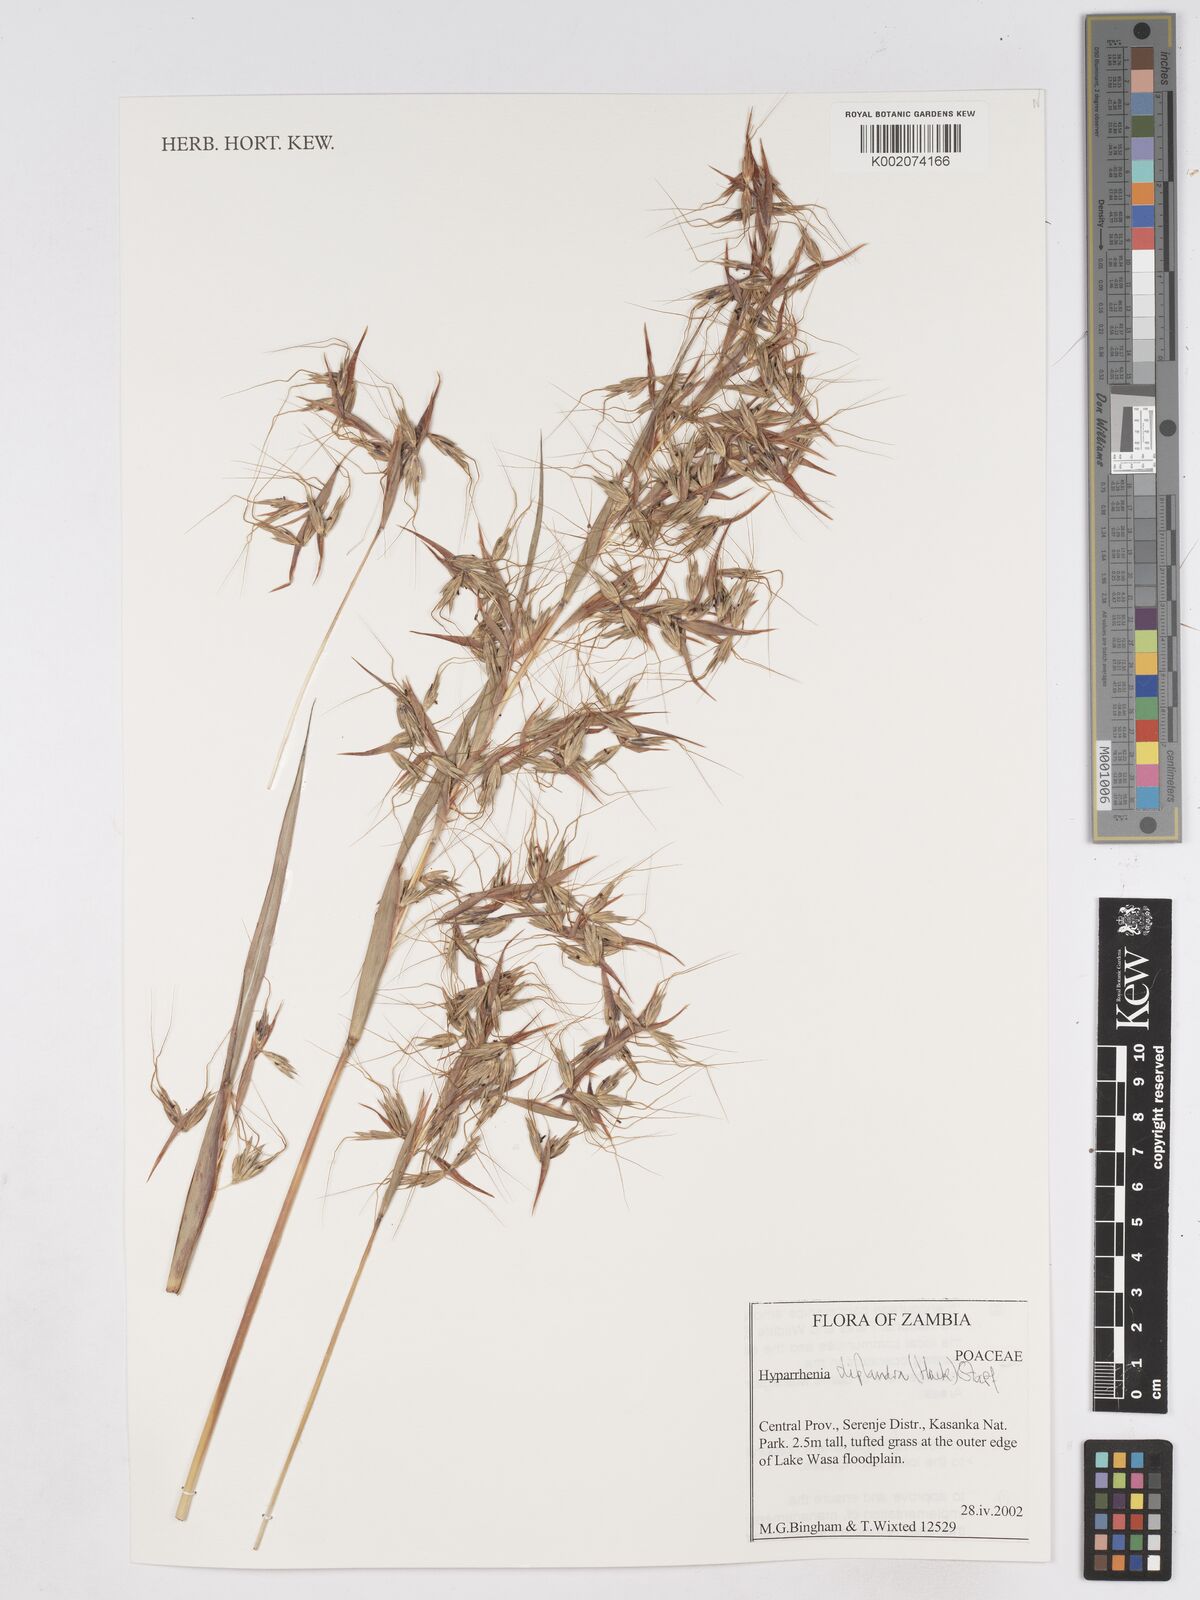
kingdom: Plantae
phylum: Tracheophyta
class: Liliopsida
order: Poales
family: Poaceae
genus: Hyparrhenia
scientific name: Hyparrhenia diplandra
